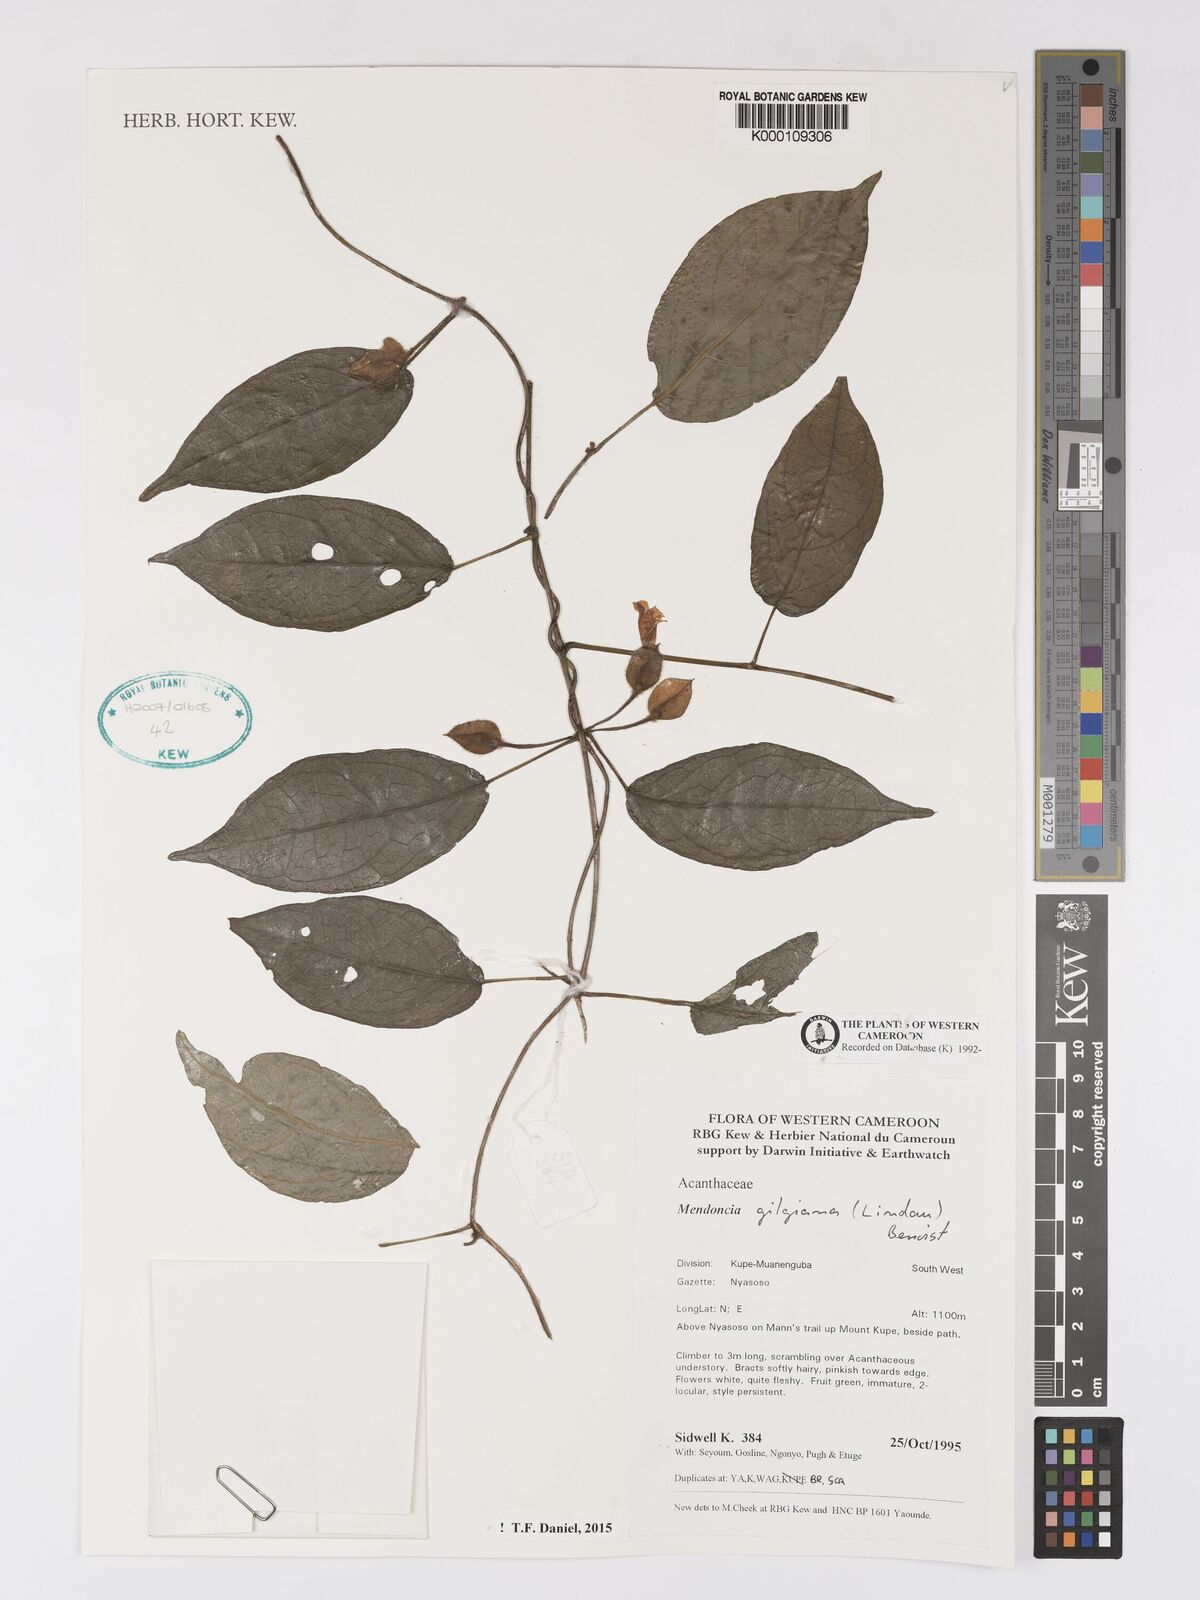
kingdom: Plantae
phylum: Tracheophyta
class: Magnoliopsida
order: Lamiales
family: Acanthaceae
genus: Mendoncia
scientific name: Mendoncia gilgiana
